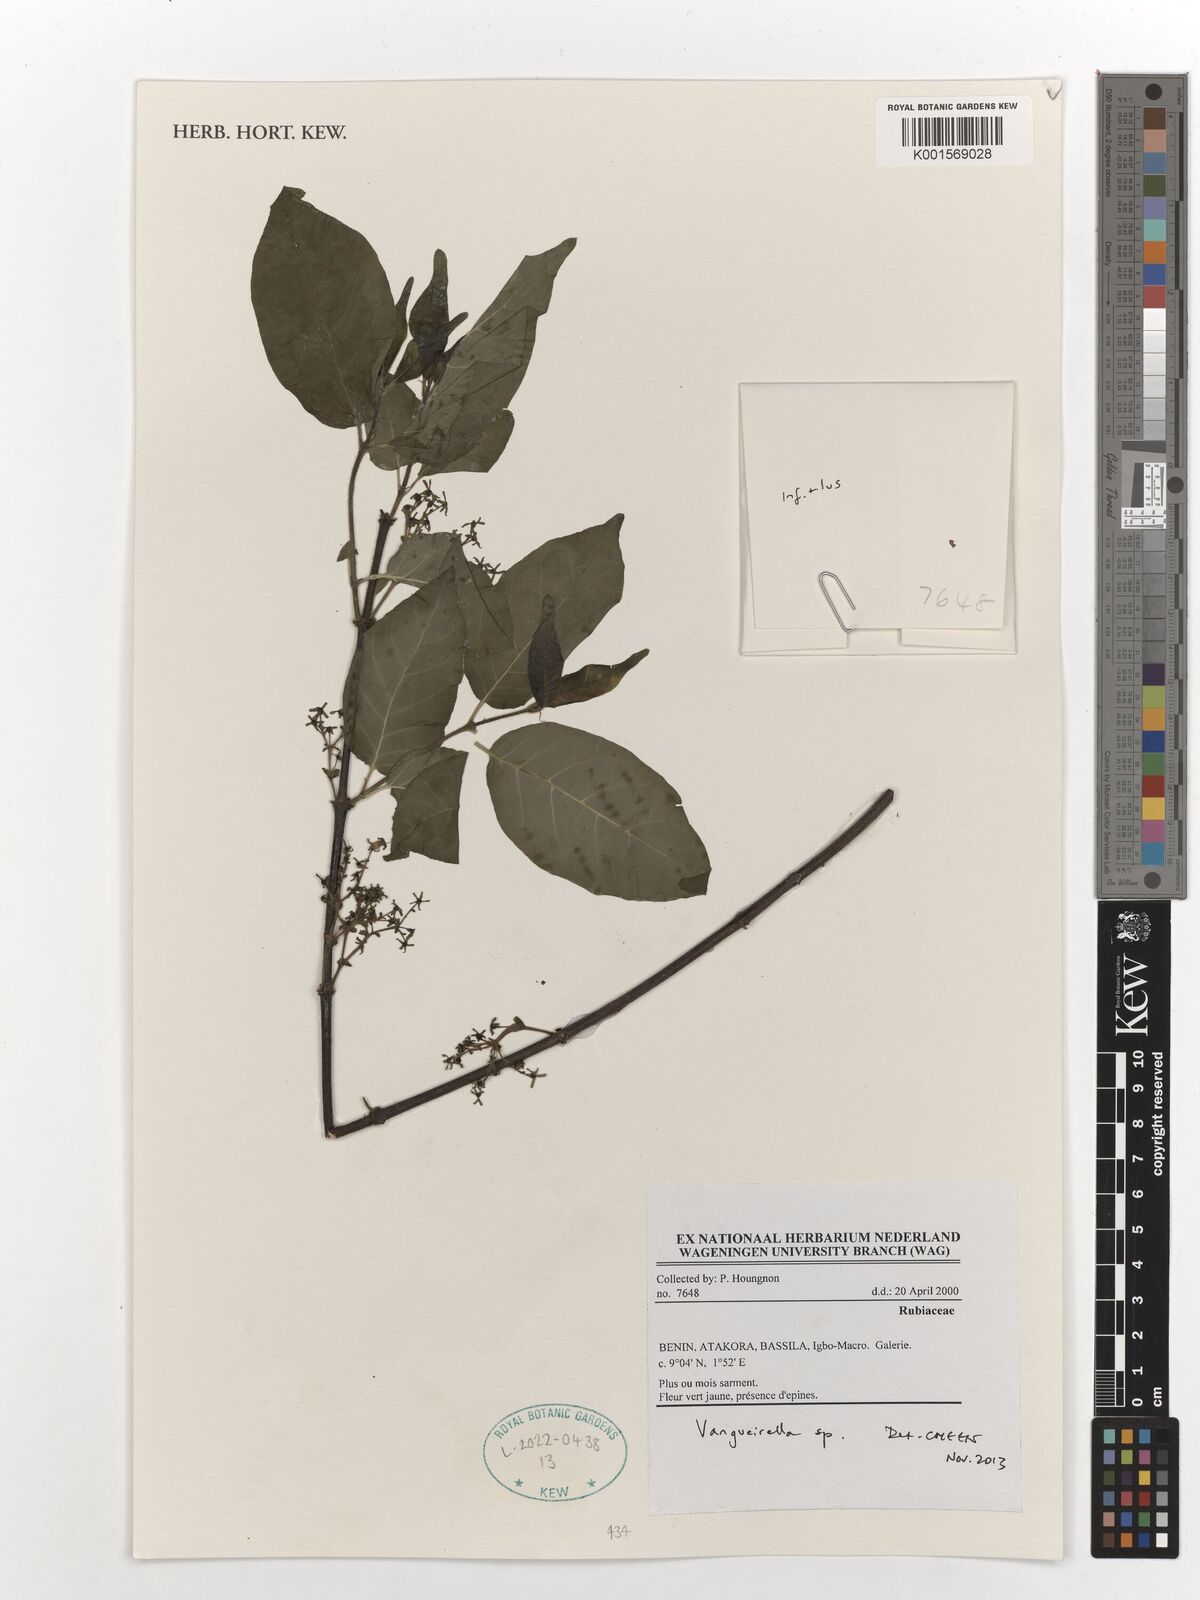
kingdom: Plantae
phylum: Tracheophyta
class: Magnoliopsida
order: Gentianales
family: Rubiaceae
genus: Vangueriella
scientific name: Vangueriella
